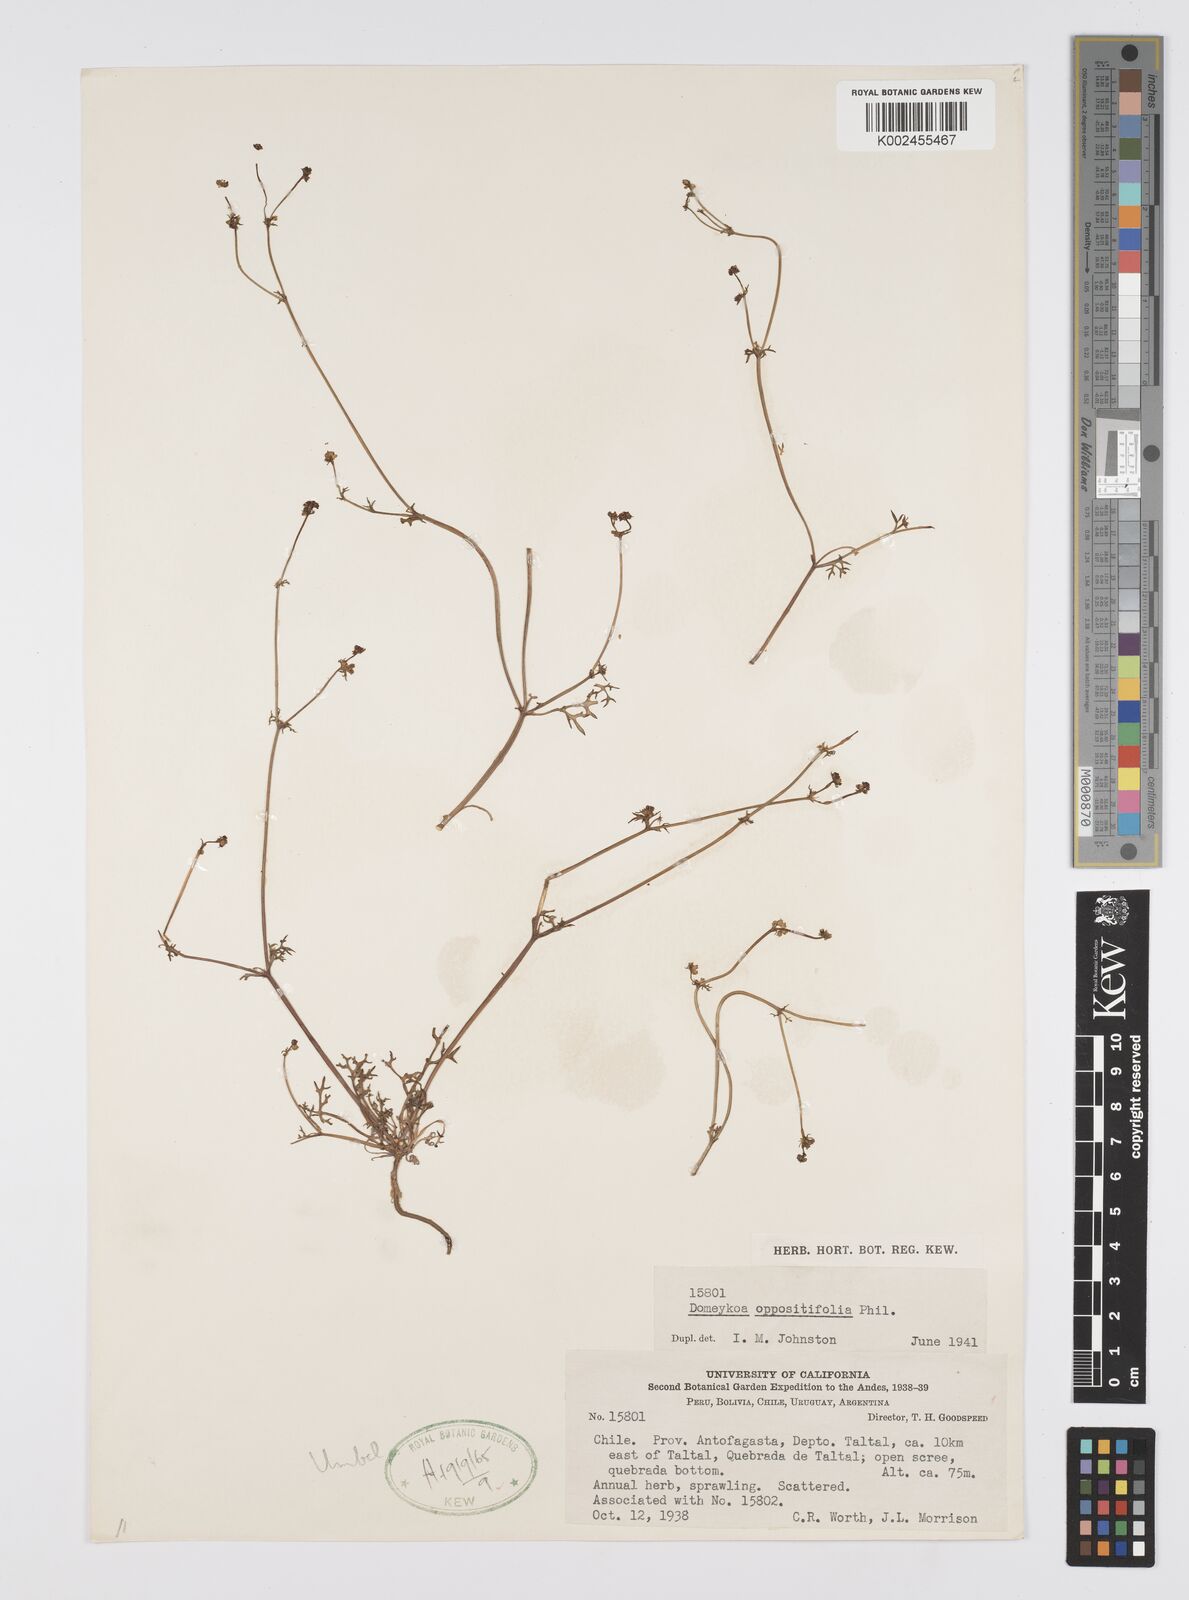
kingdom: Plantae
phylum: Tracheophyta
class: Magnoliopsida
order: Apiales
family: Apiaceae
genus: Domeykoa
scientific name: Domeykoa oppositifolia
